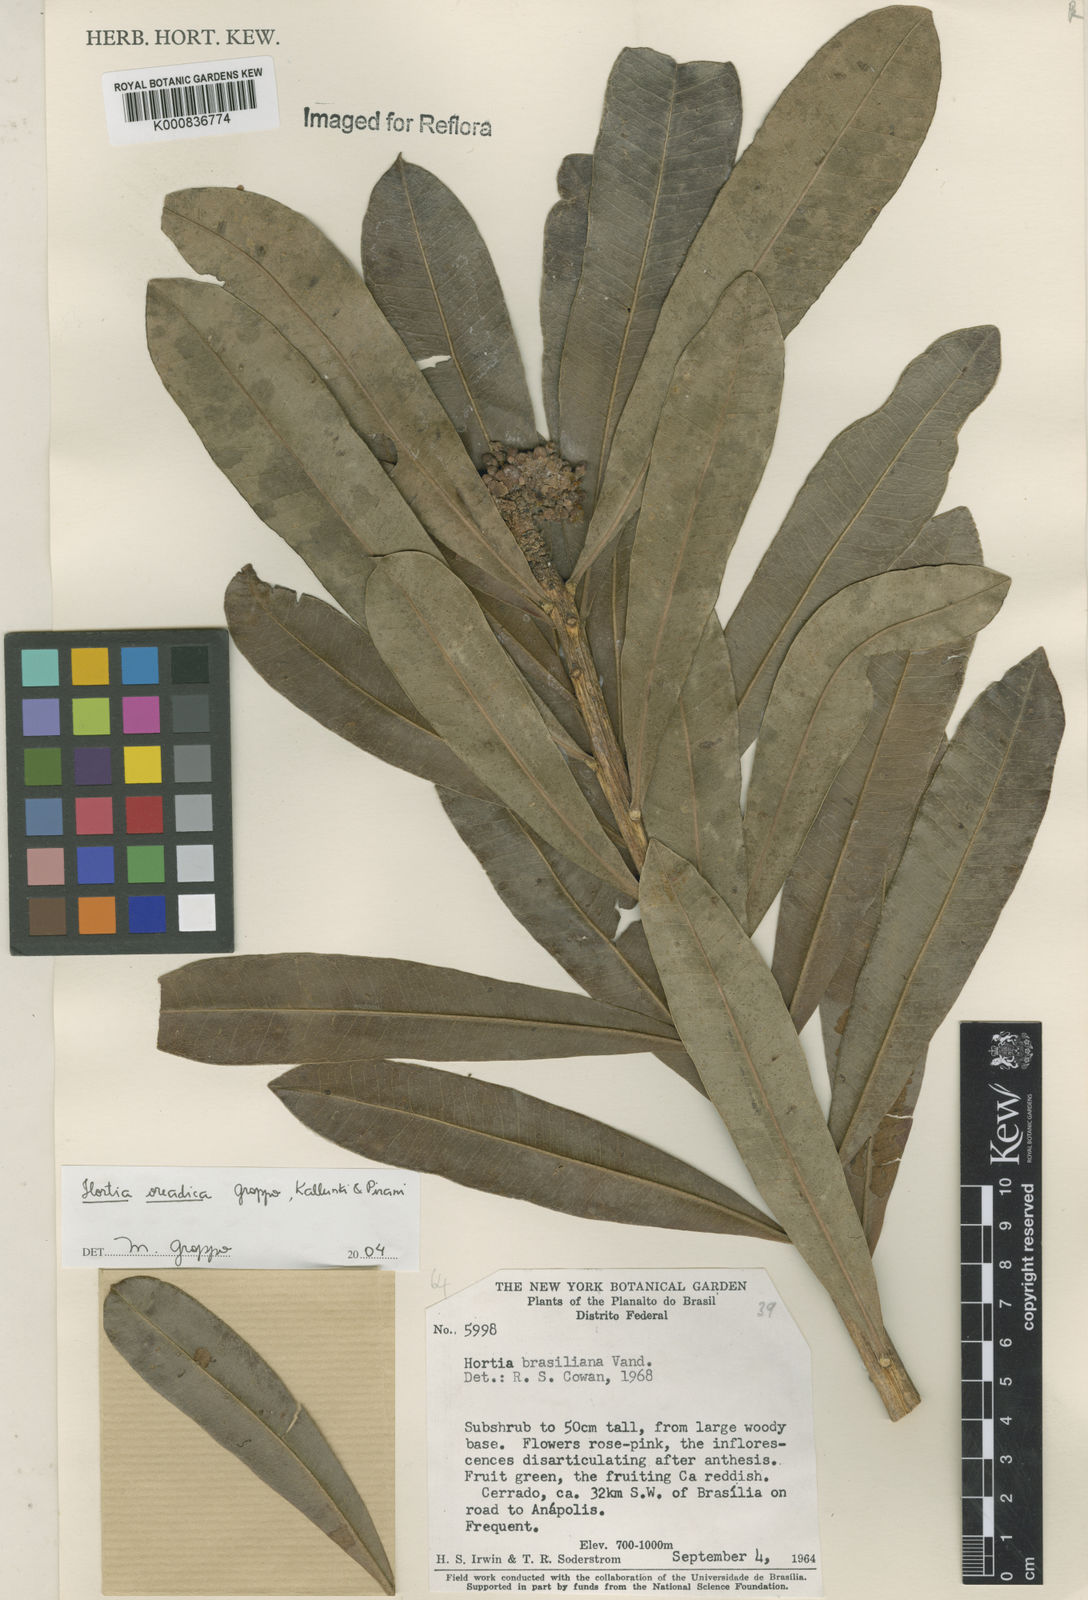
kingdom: Plantae
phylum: Tracheophyta
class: Magnoliopsida
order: Sapindales
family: Rutaceae
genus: Hortia
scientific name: Hortia brasiliana
